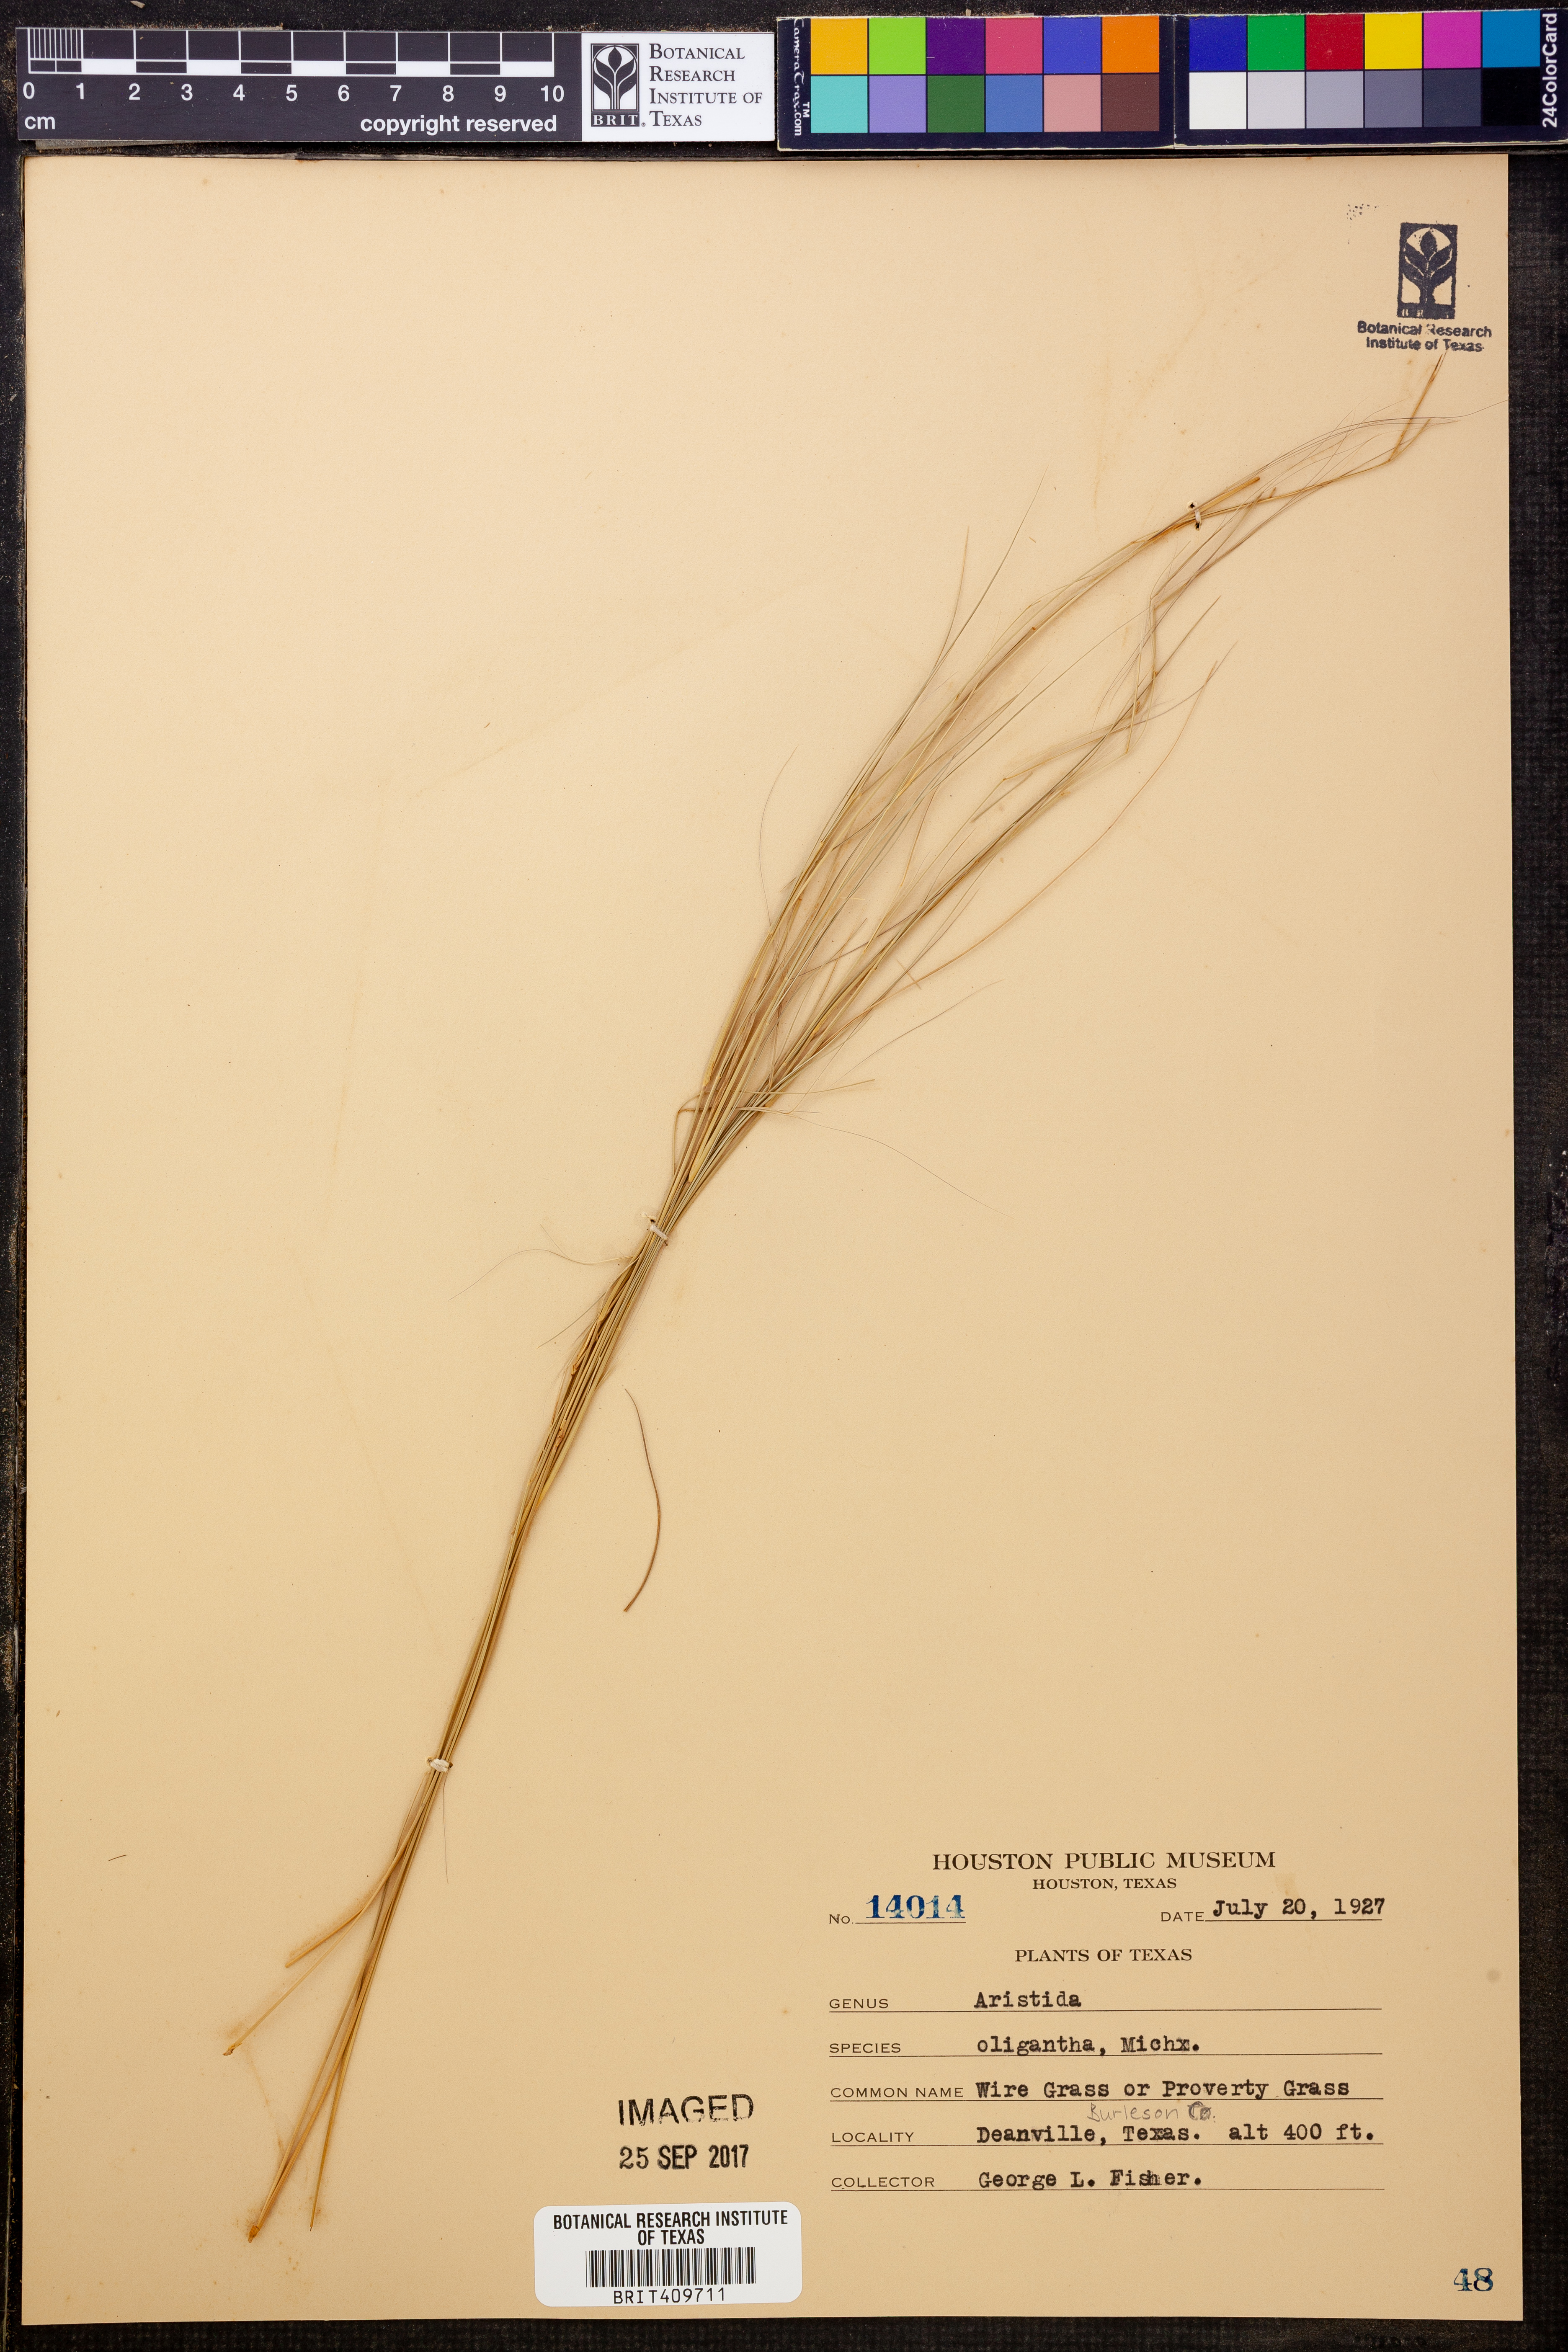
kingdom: Plantae
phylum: Tracheophyta
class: Liliopsida
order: Poales
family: Poaceae
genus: Aristida
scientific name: Aristida oligantha
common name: Few-flowered aristida
